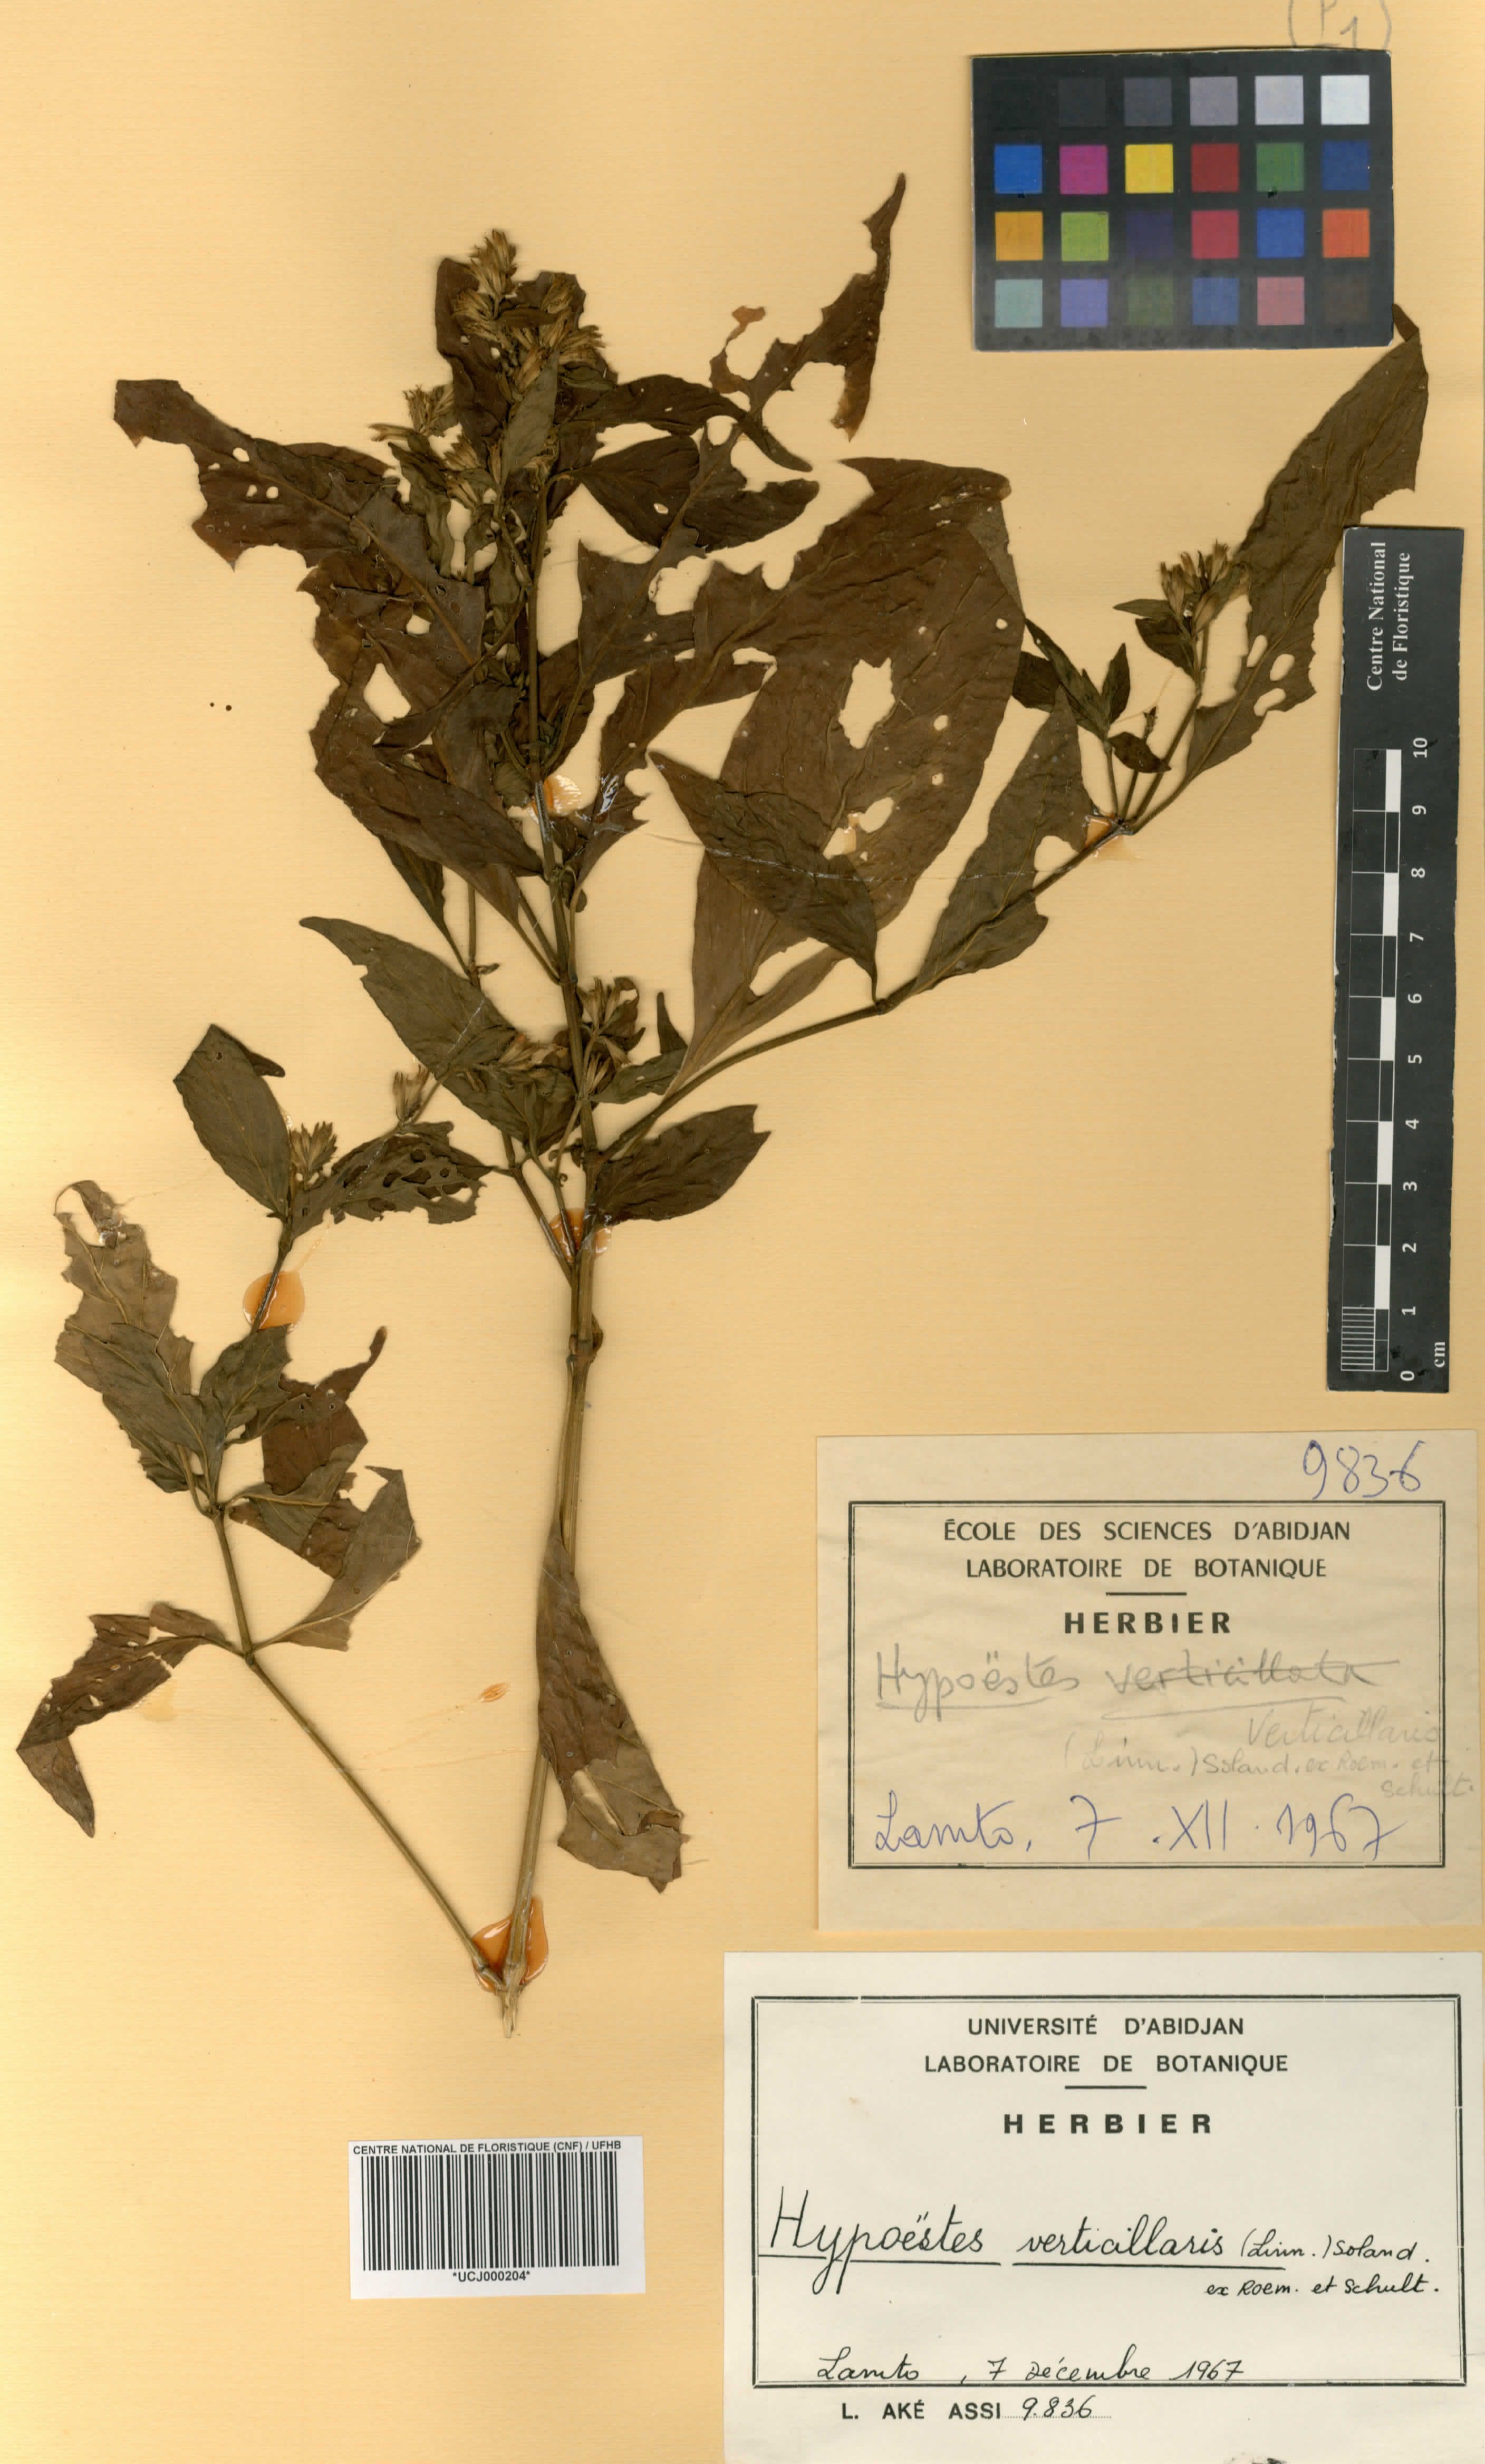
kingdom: Plantae
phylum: Tracheophyta
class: Magnoliopsida
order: Lamiales
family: Acanthaceae
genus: Hypoestes
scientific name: Hypoestes aristata
